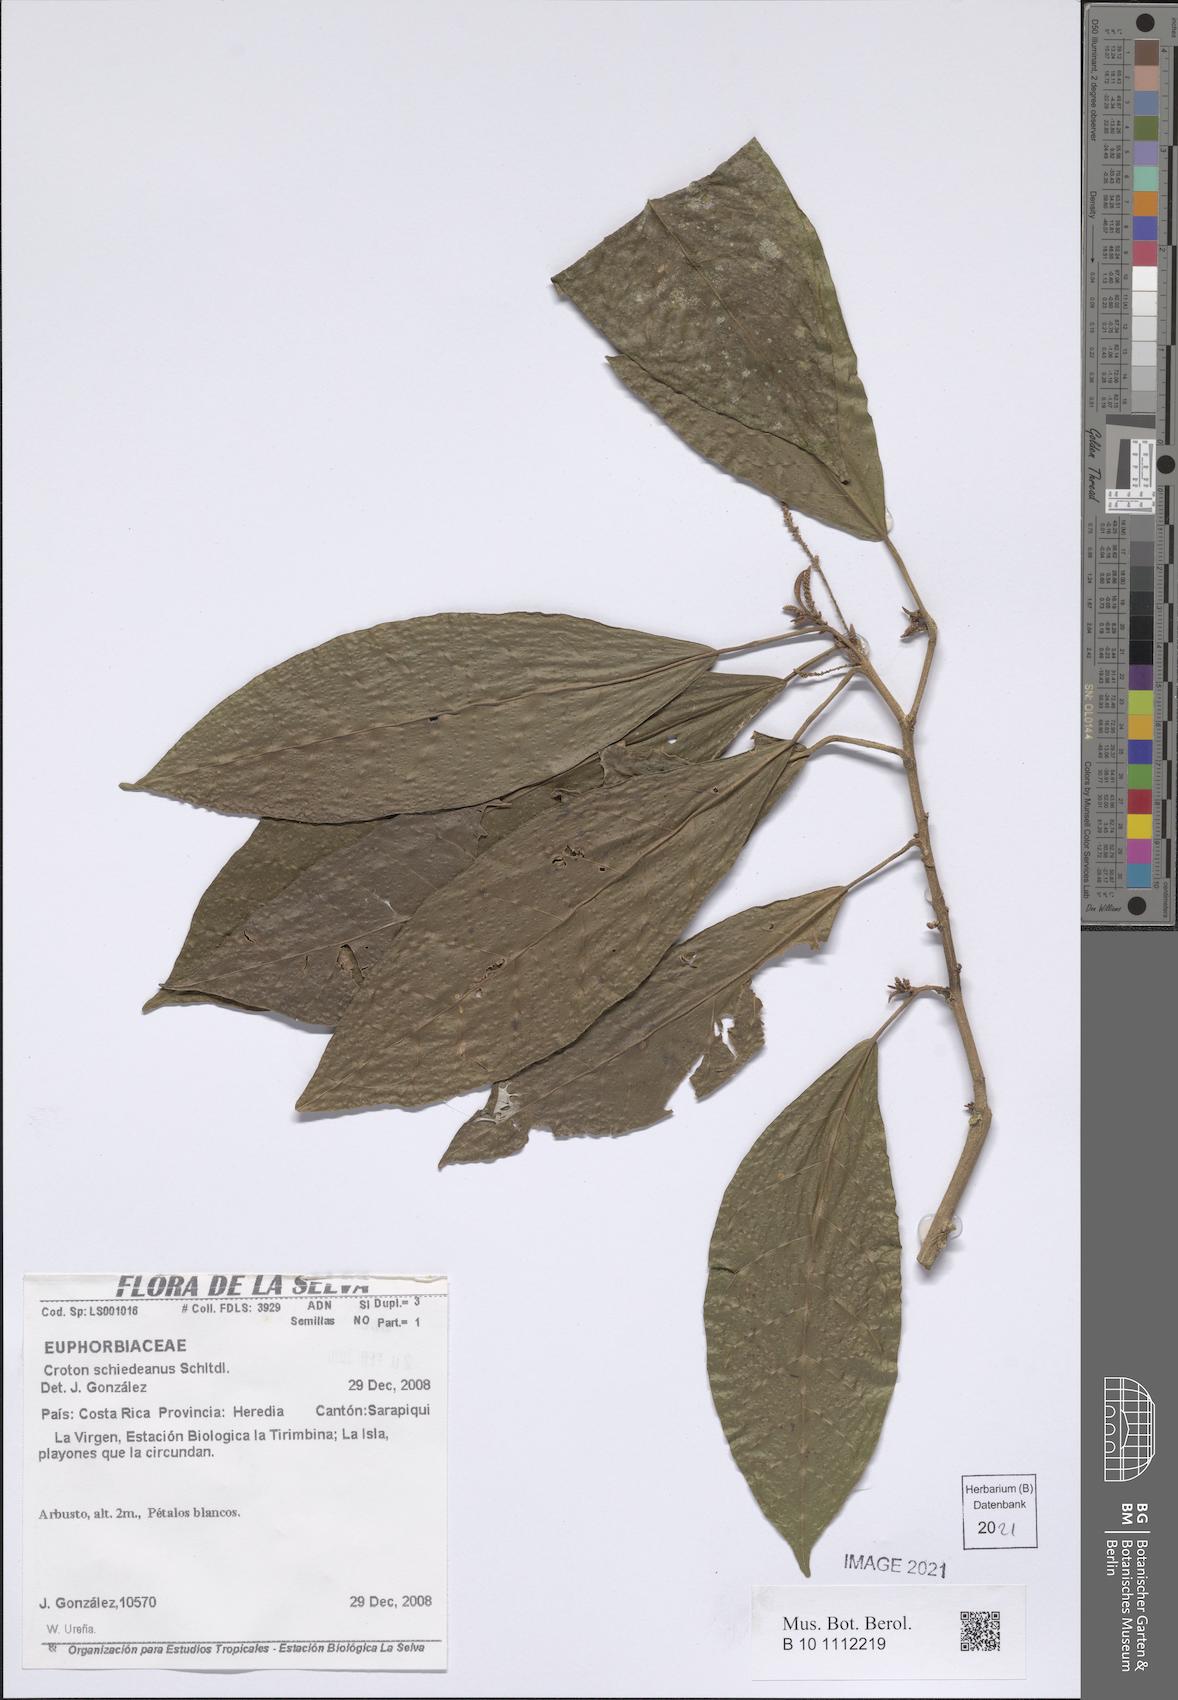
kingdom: Plantae
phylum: Tracheophyta
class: Magnoliopsida
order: Malpighiales
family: Euphorbiaceae
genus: Croton
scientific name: Croton schiedeanus
